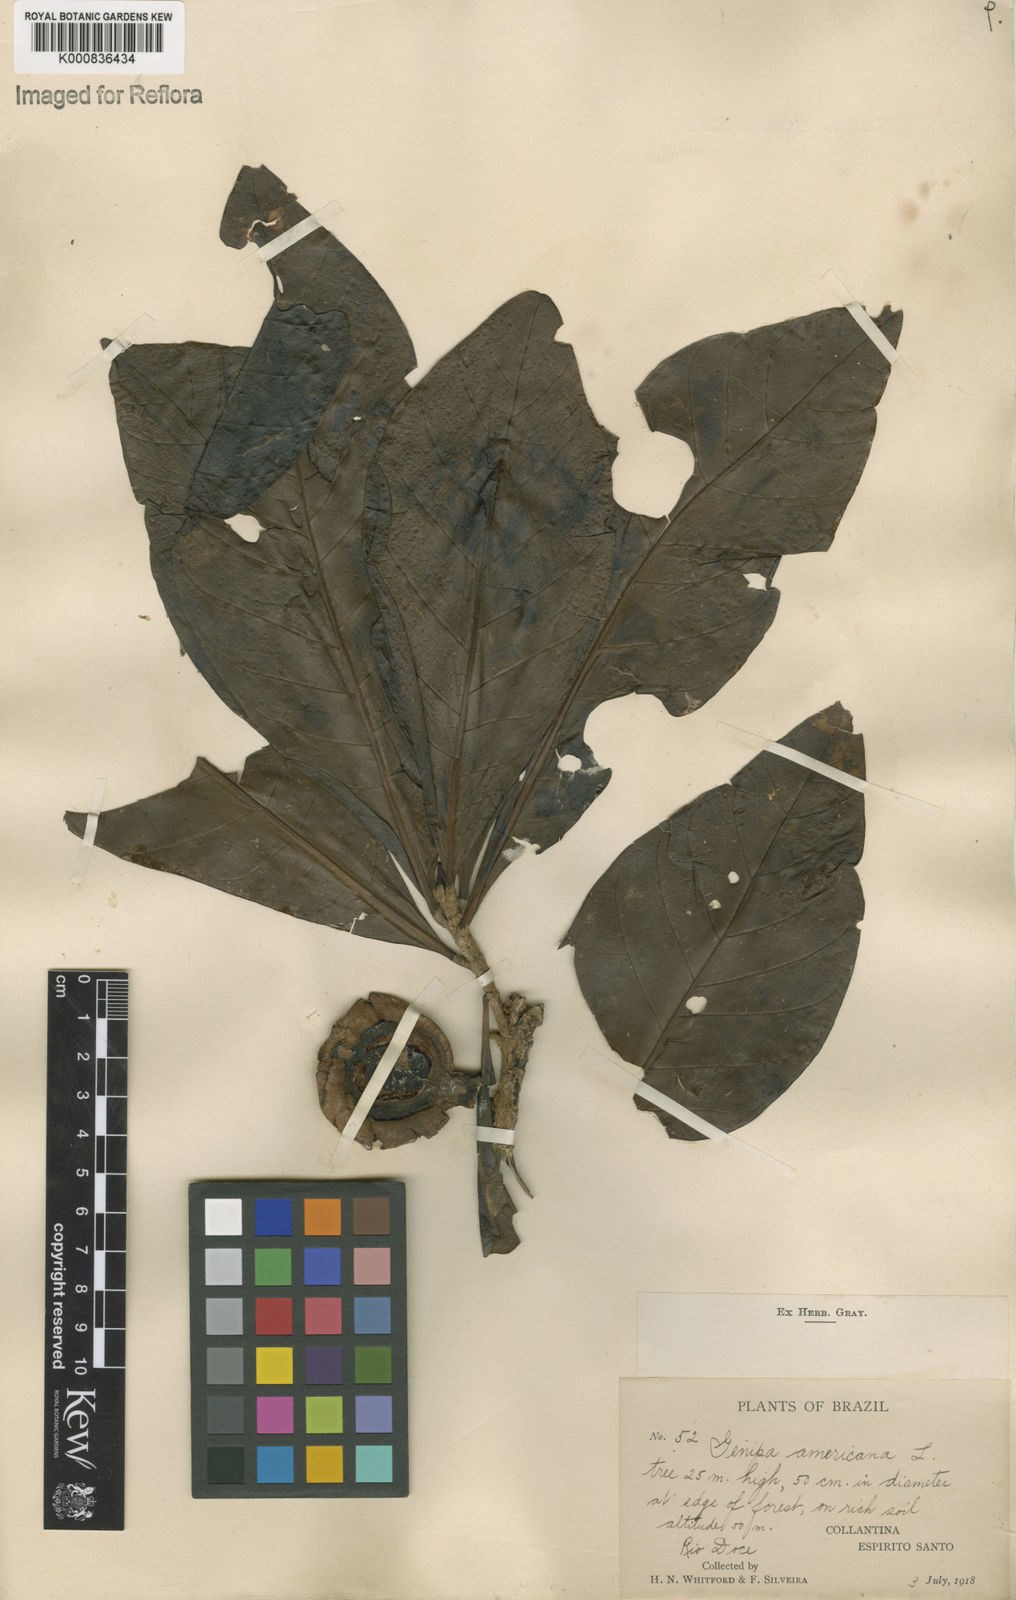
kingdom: Plantae
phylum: Tracheophyta
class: Magnoliopsida
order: Gentianales
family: Rubiaceae
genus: Genipa
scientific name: Genipa americana
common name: Genipap
